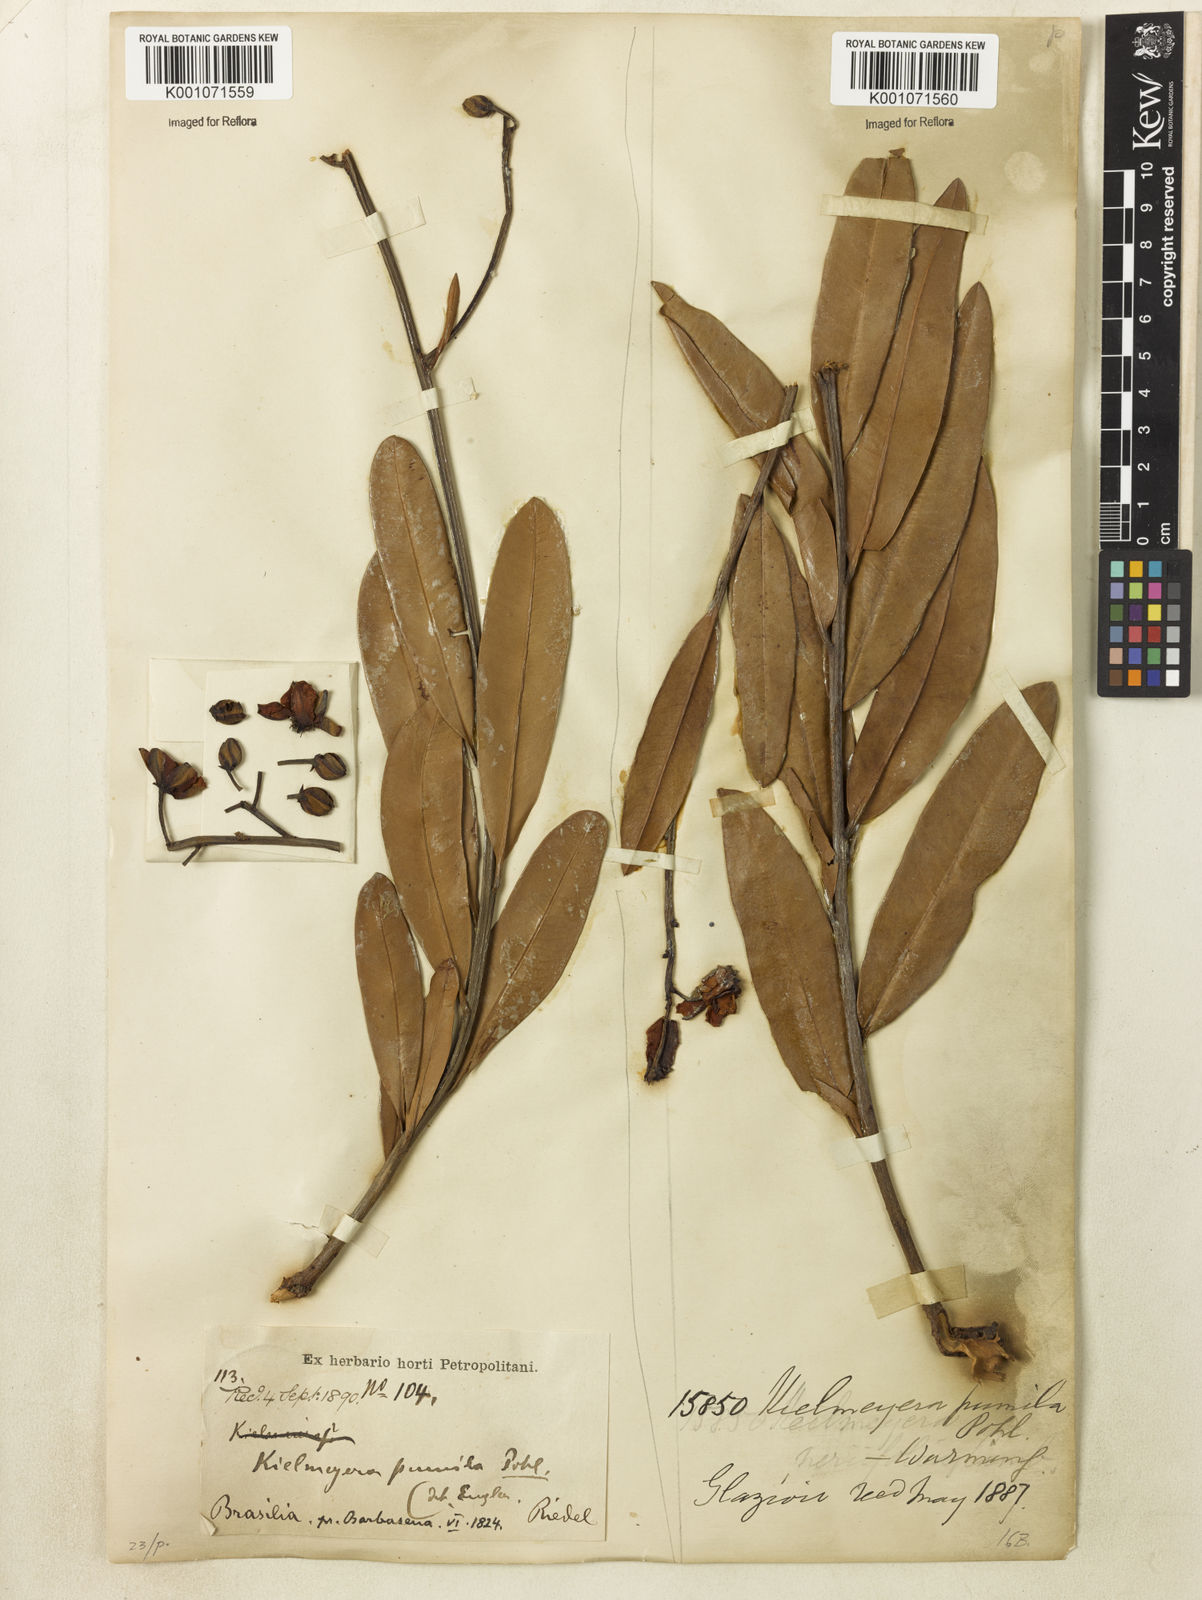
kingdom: Plantae
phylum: Tracheophyta
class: Magnoliopsida
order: Malpighiales
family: Calophyllaceae
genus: Kielmeyera
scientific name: Kielmeyera pumila
